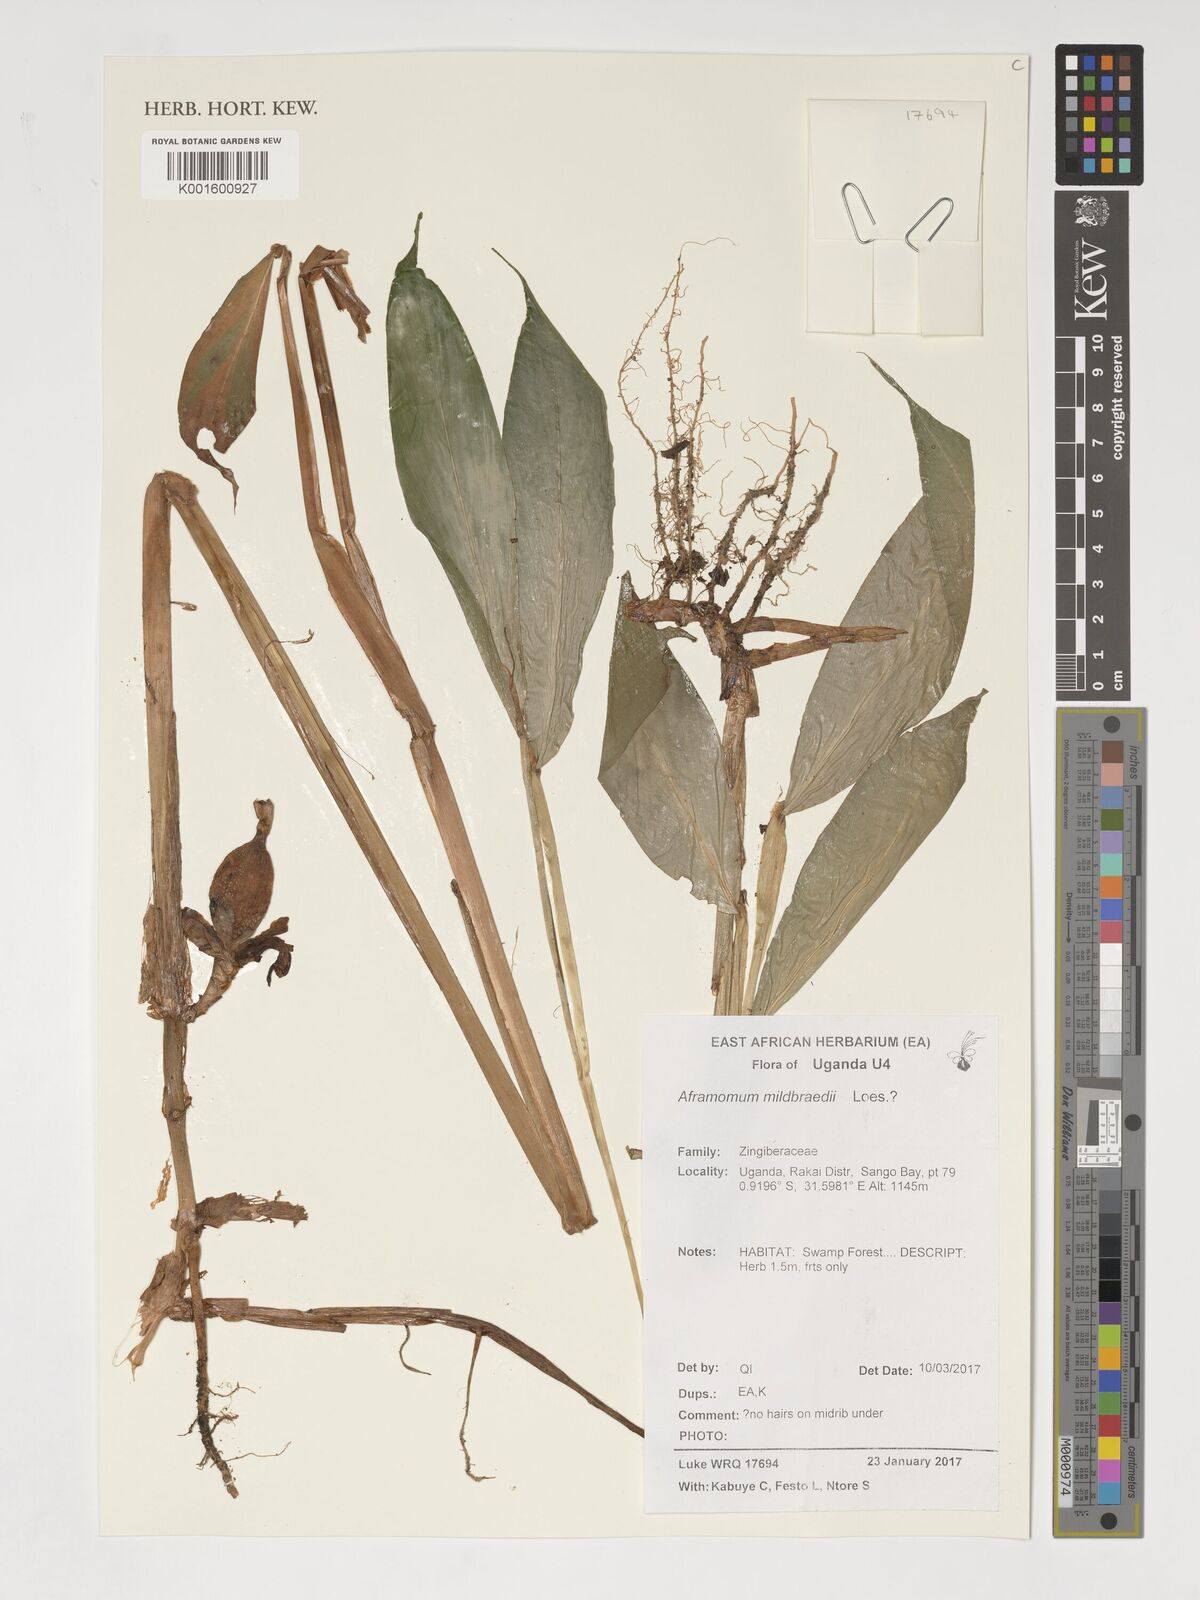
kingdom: Plantae
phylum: Tracheophyta
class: Liliopsida
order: Zingiberales
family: Zingiberaceae
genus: Aframomum
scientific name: Aframomum mildbraedii
